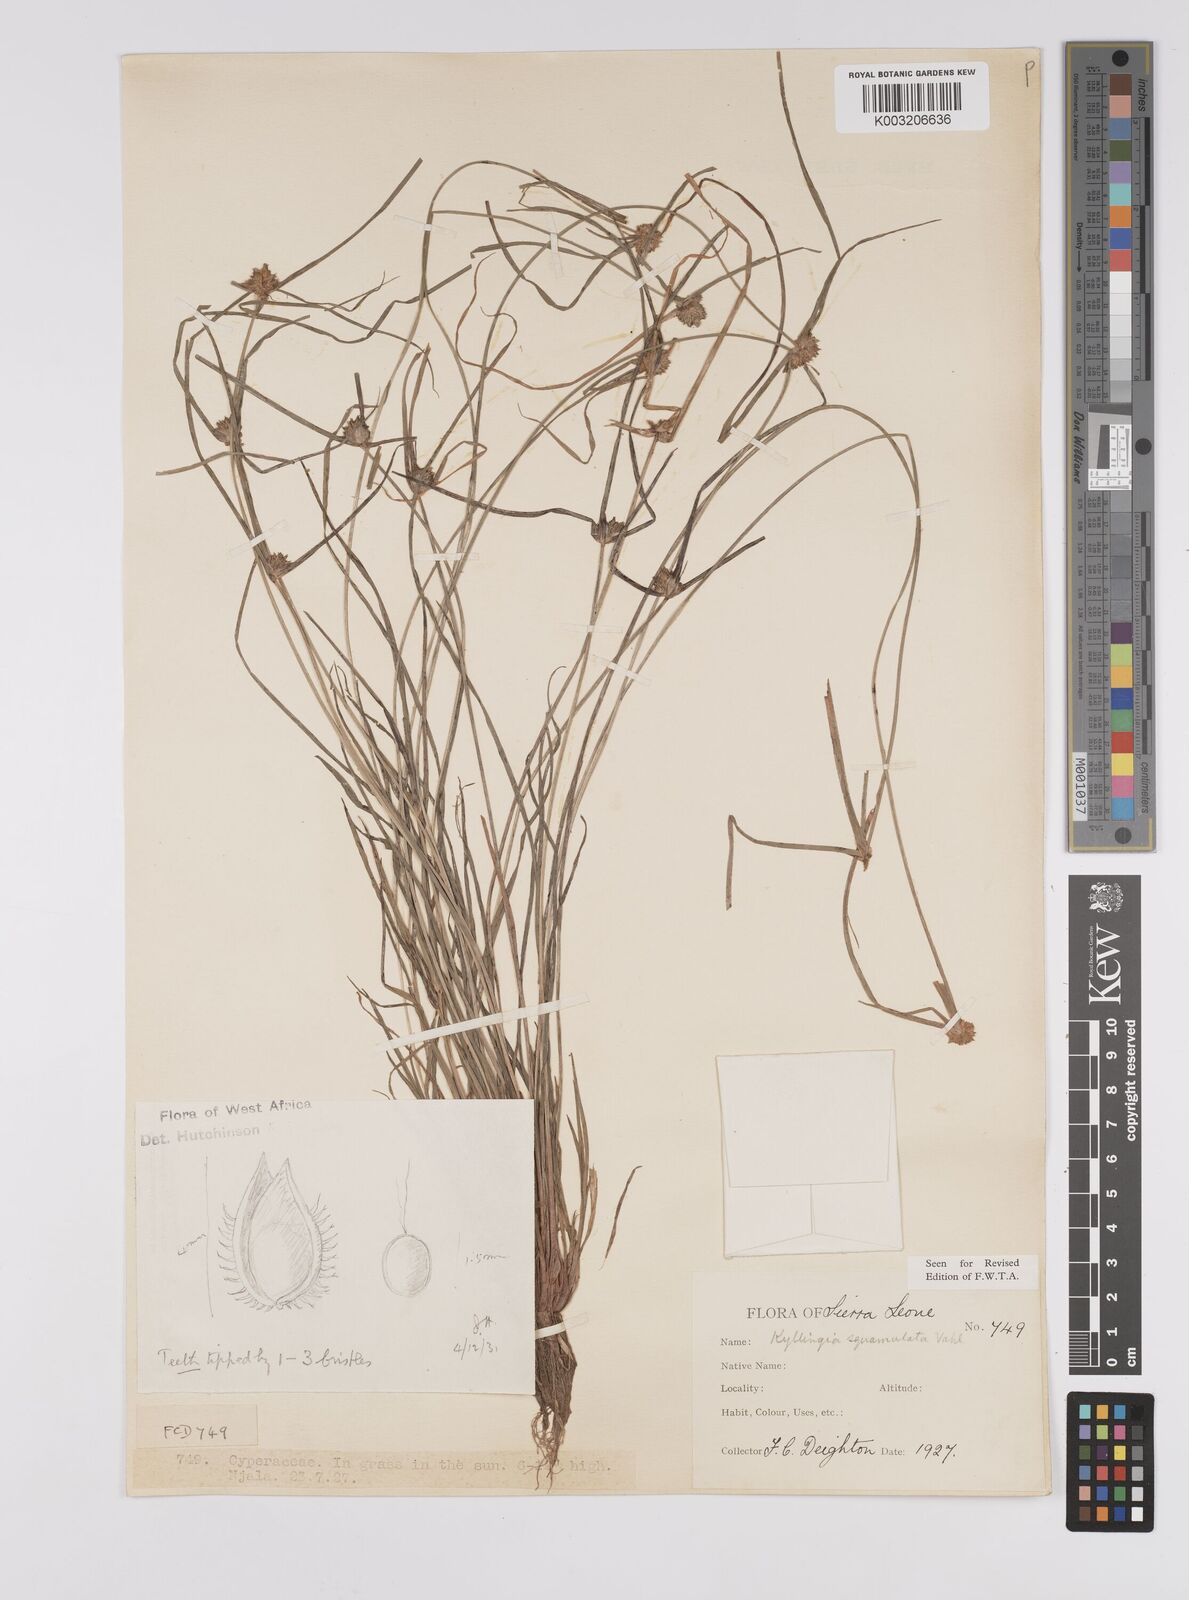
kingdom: Plantae
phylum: Tracheophyta
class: Liliopsida
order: Poales
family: Cyperaceae
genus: Cyperus
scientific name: Cyperus distans
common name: Slender cyperus
